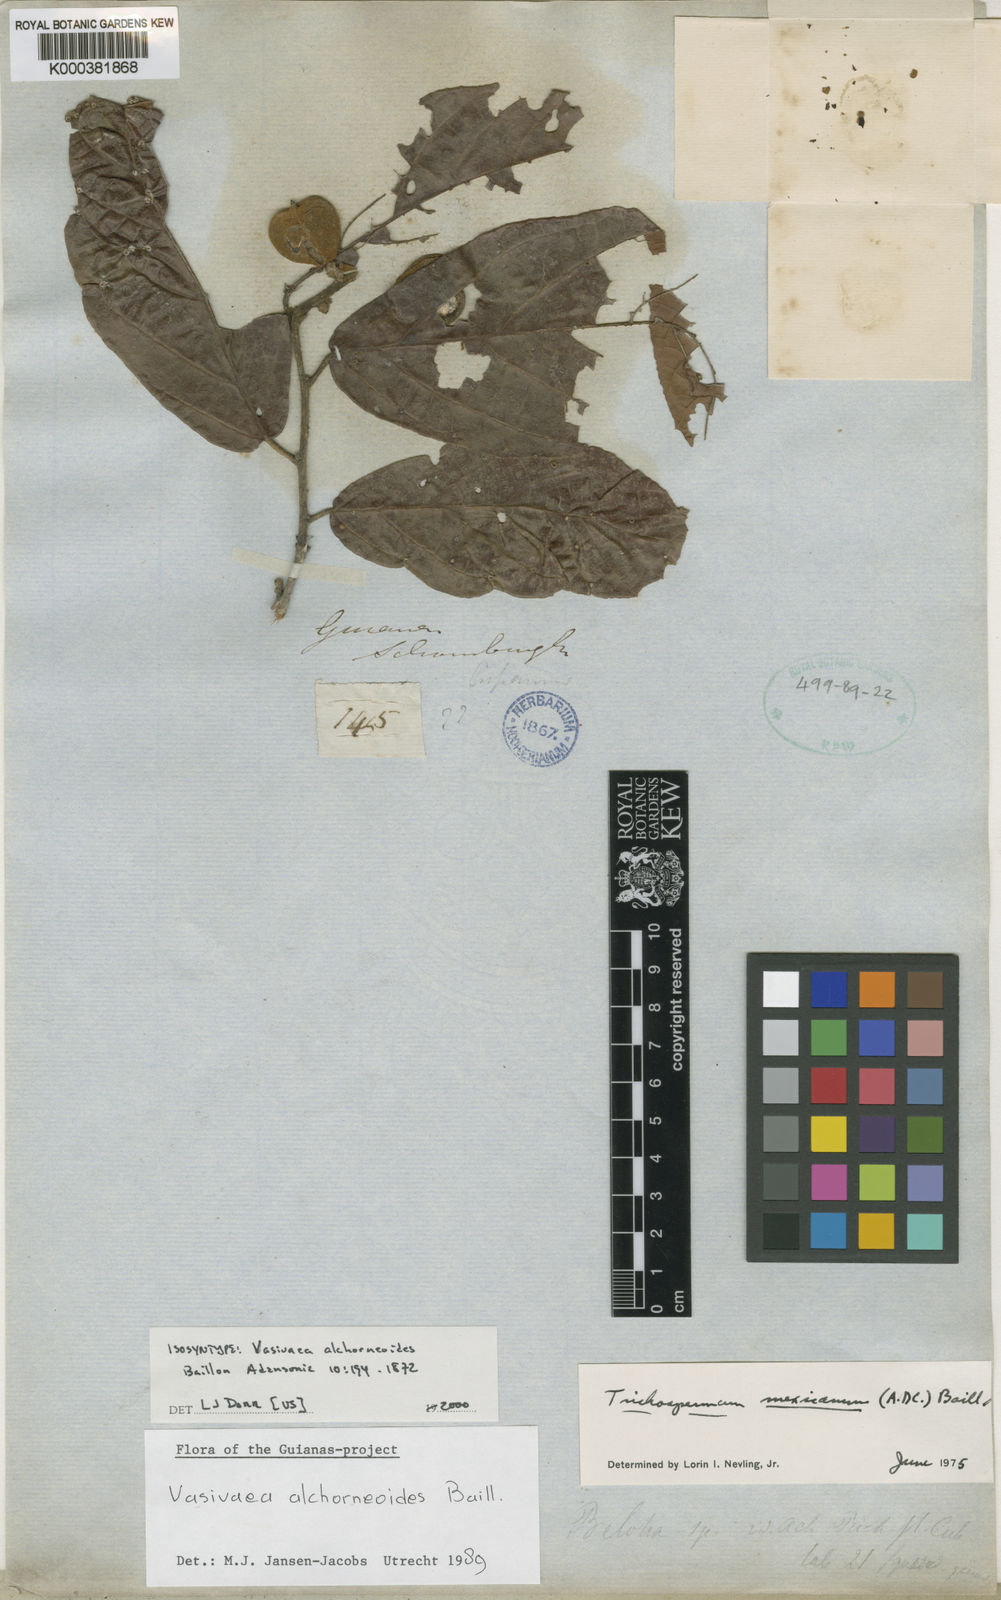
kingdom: Plantae
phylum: Tracheophyta
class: Magnoliopsida
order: Malvales
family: Malvaceae
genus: Vasivaea
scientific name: Vasivaea alchorneoides
